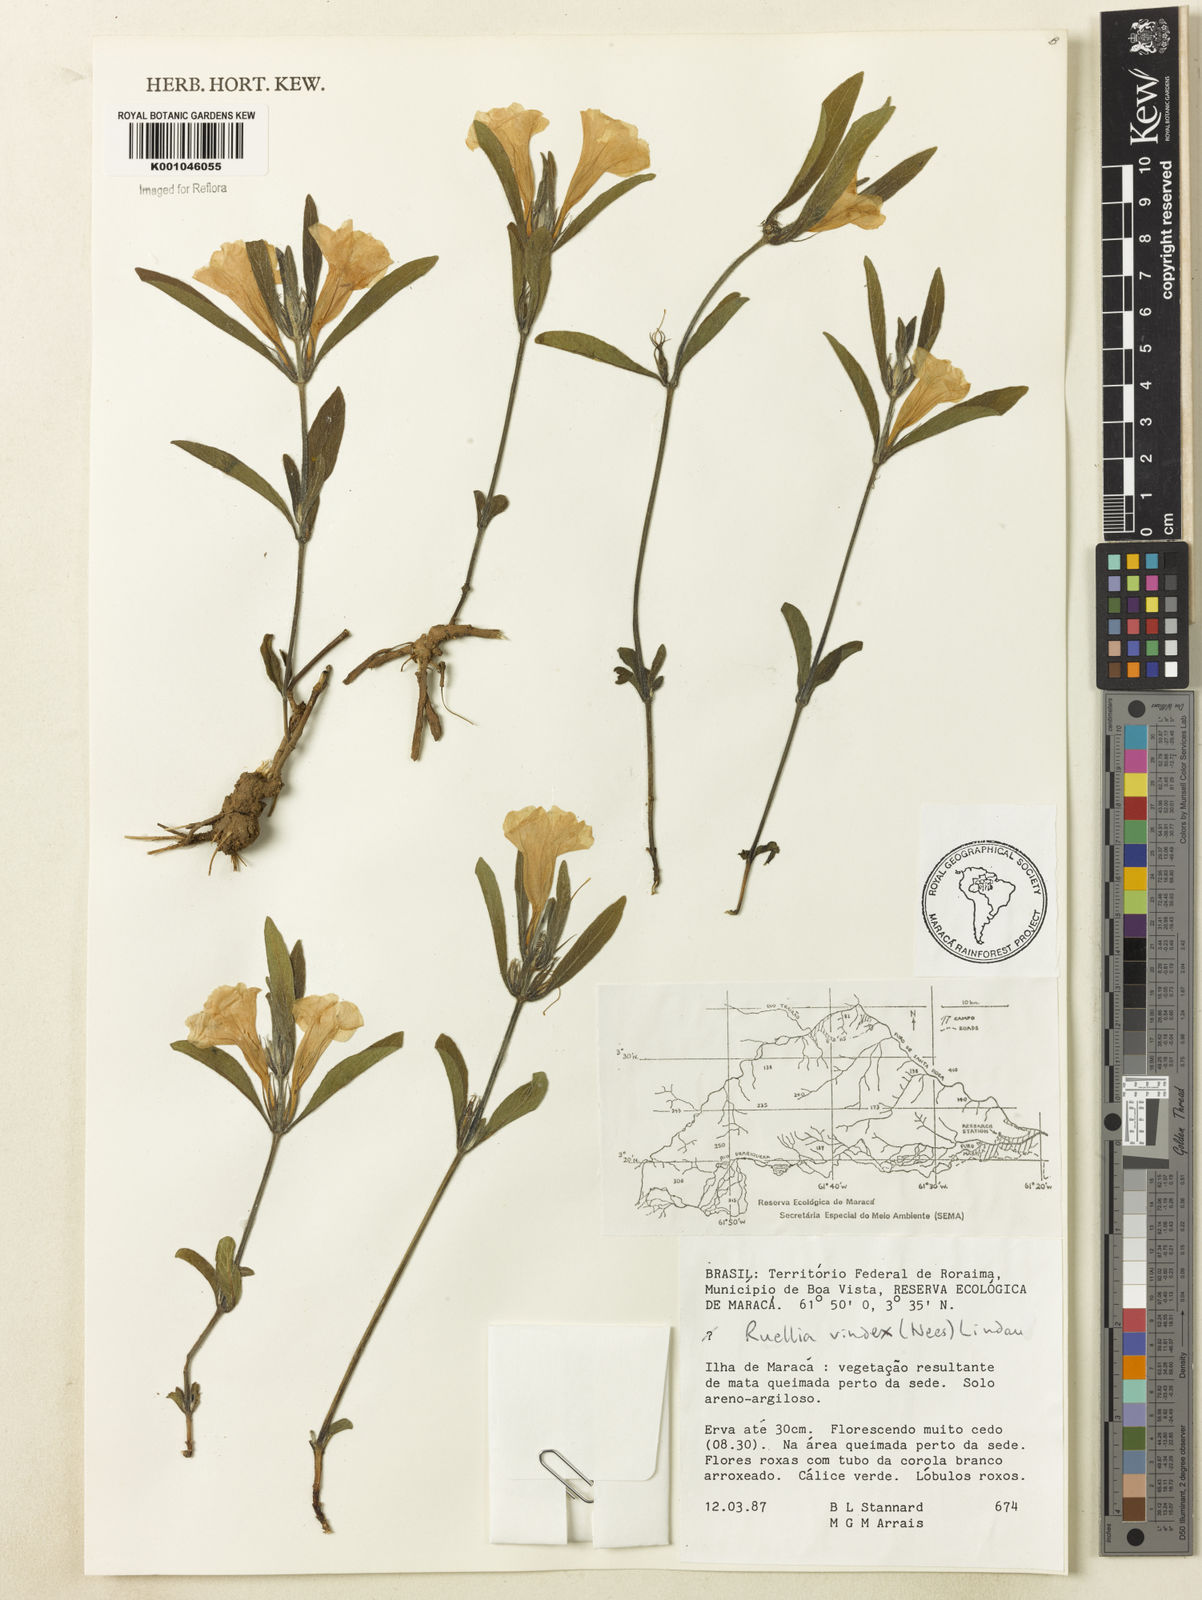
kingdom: Plantae
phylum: Tracheophyta
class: Magnoliopsida
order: Lamiales
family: Acanthaceae
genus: Ruellia
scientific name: Ruellia geminiflora
